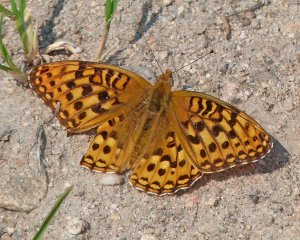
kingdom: Animalia
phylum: Arthropoda
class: Insecta
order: Lepidoptera
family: Nymphalidae
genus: Speyeria
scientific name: Speyeria zerene
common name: Zerene Fritillary
